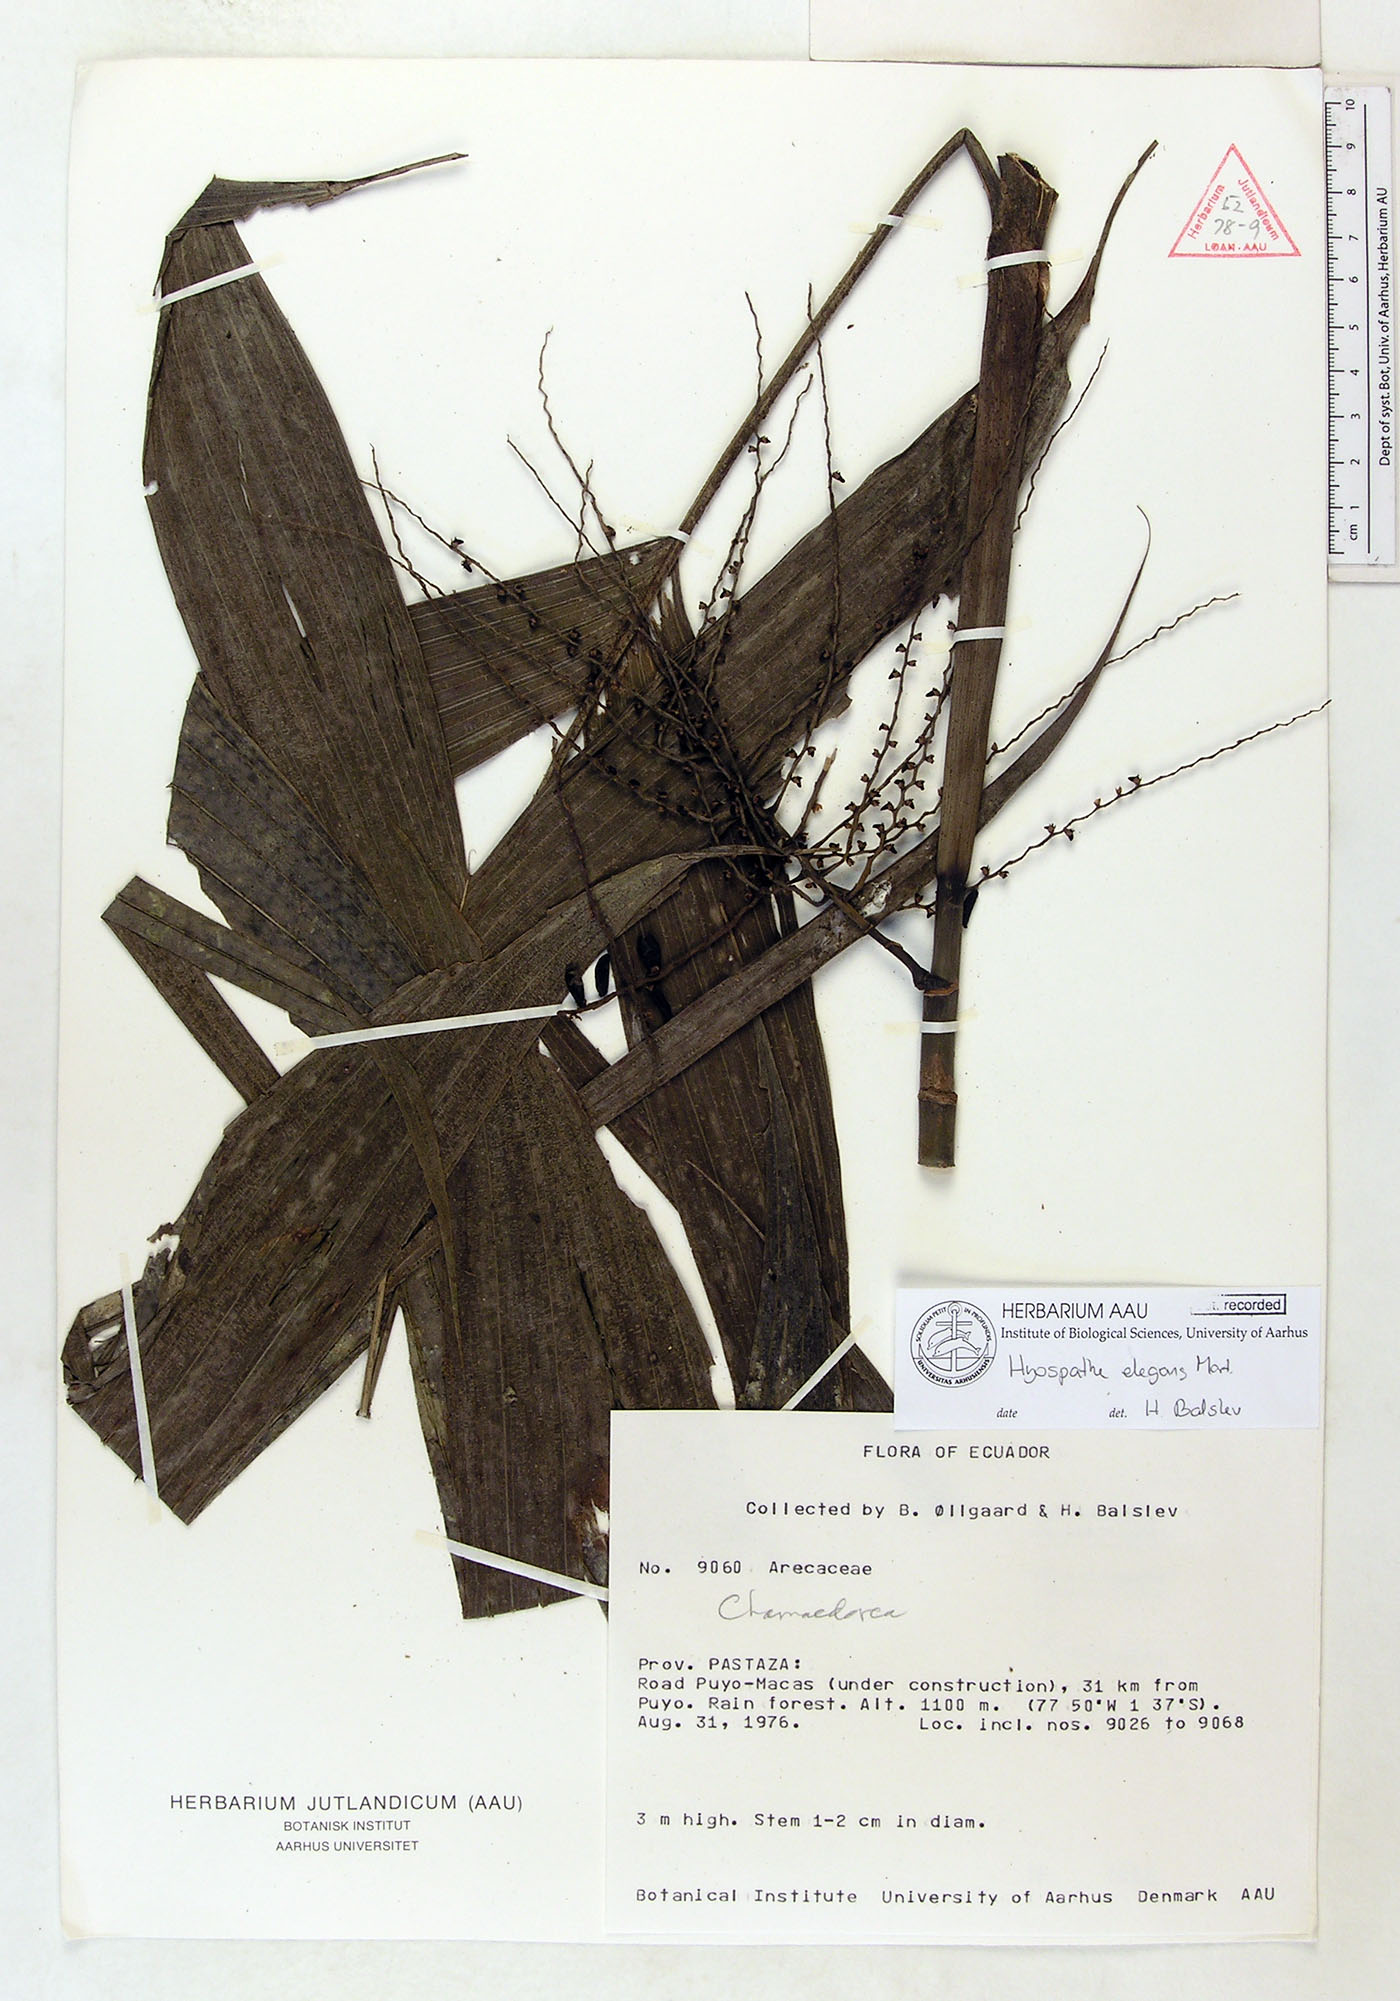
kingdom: Plantae
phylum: Tracheophyta
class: Liliopsida
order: Arecales
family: Arecaceae
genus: Hyospathe
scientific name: Hyospathe elegans
